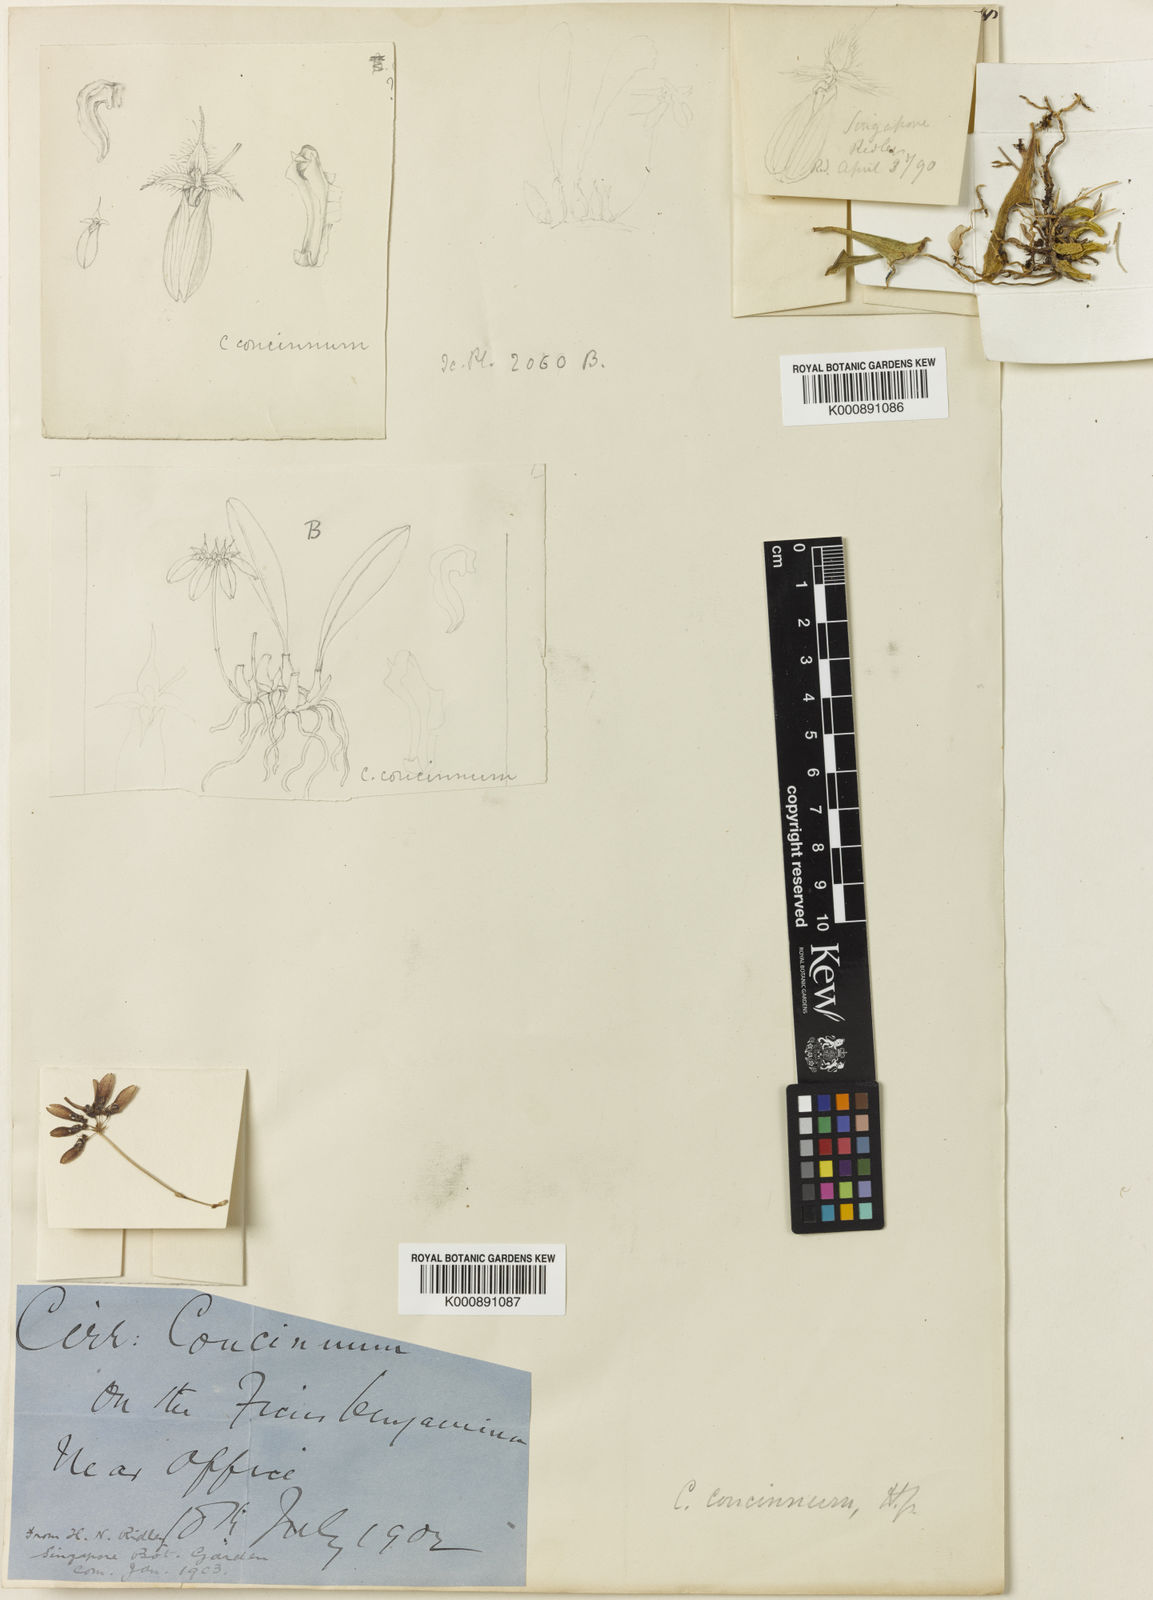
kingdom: Plantae
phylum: Tracheophyta
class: Liliopsida
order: Asparagales
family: Orchidaceae
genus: Bulbophyllum
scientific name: Bulbophyllum trigonopus
